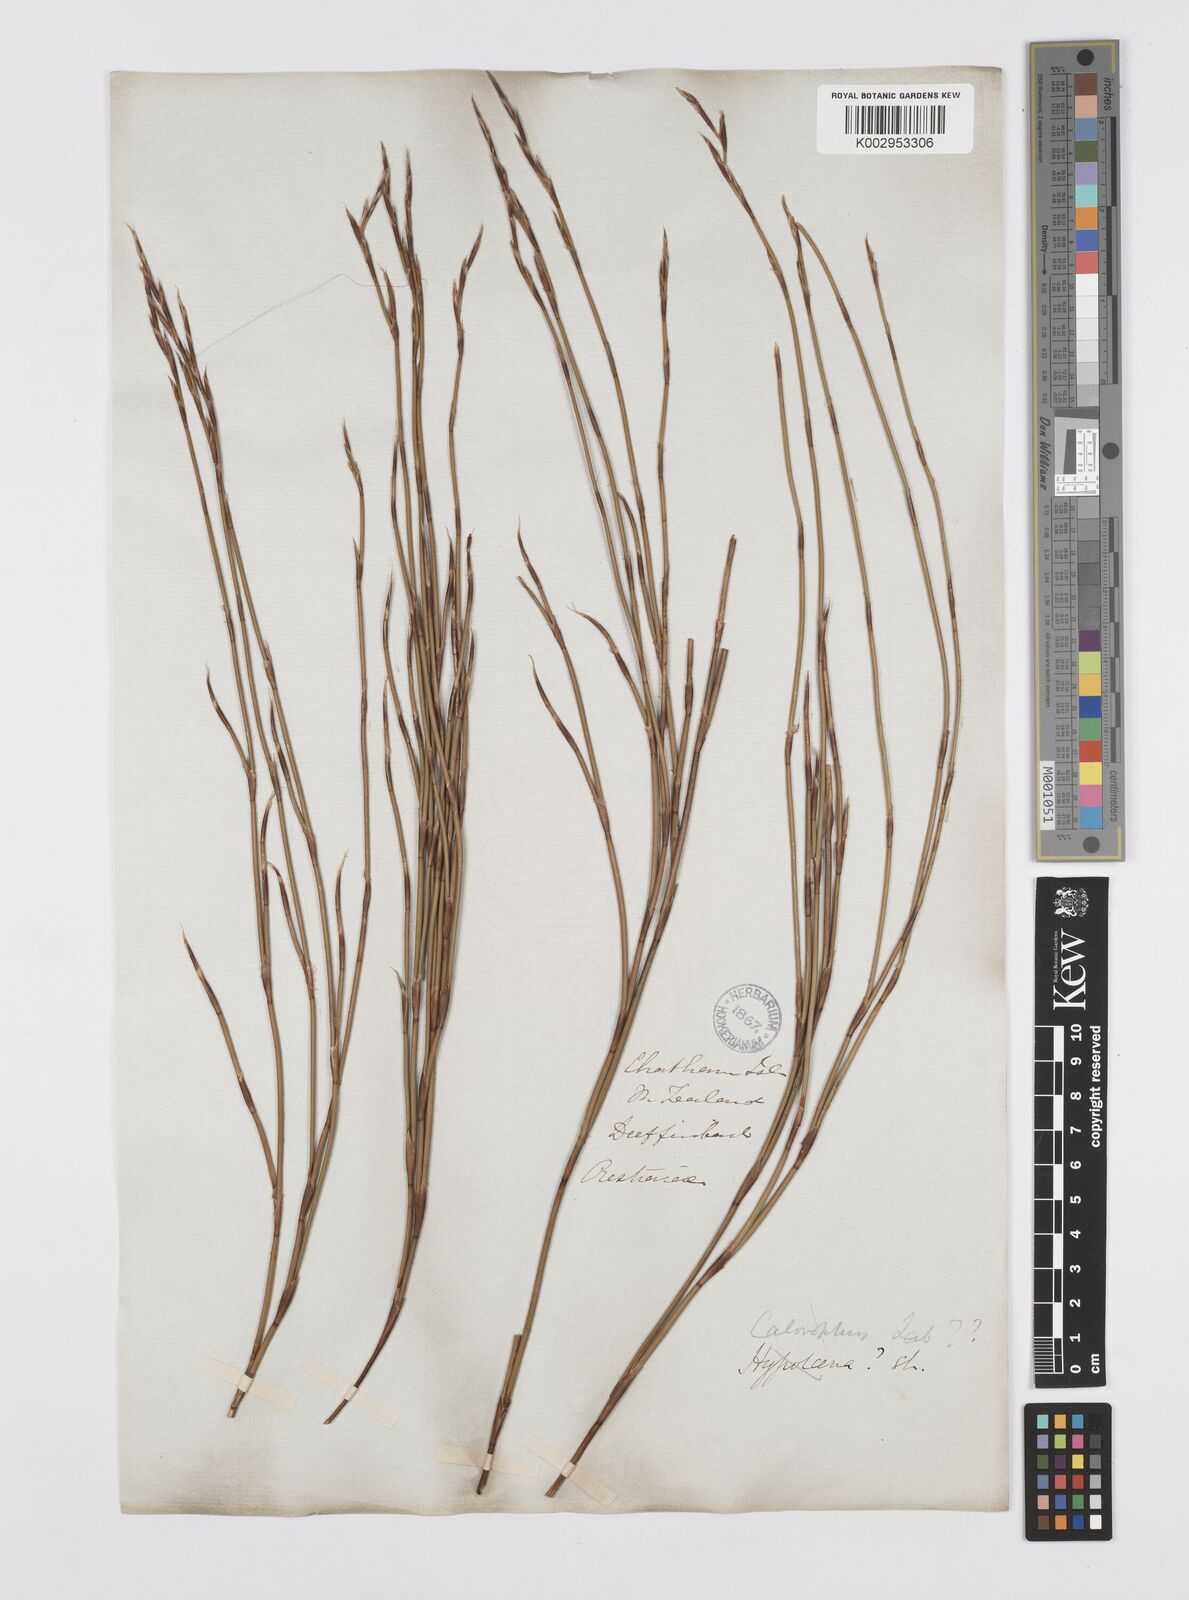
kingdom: Plantae
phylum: Tracheophyta
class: Liliopsida
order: Poales
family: Restionaceae
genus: Sporadanthus
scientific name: Sporadanthus traversii
